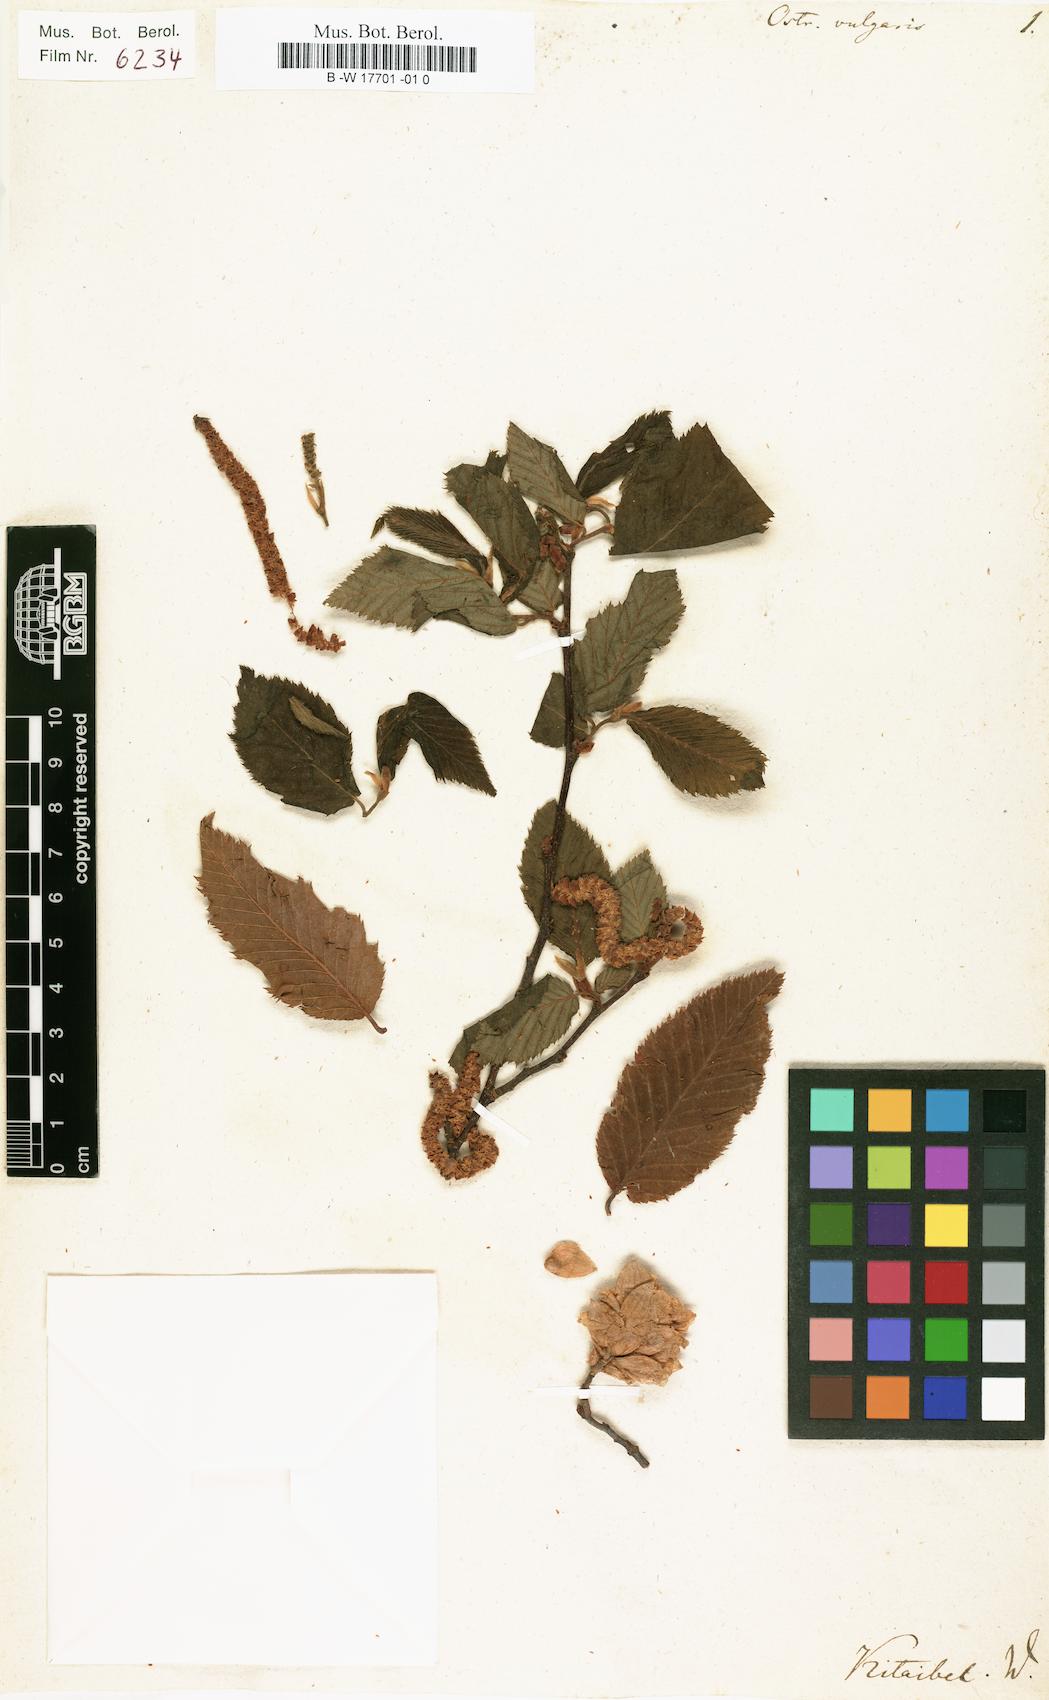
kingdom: Plantae
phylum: Tracheophyta
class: Magnoliopsida
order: Fagales
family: Betulaceae
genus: Ostrya
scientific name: Ostrya carpinifolia
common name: European hop-hornbeam
